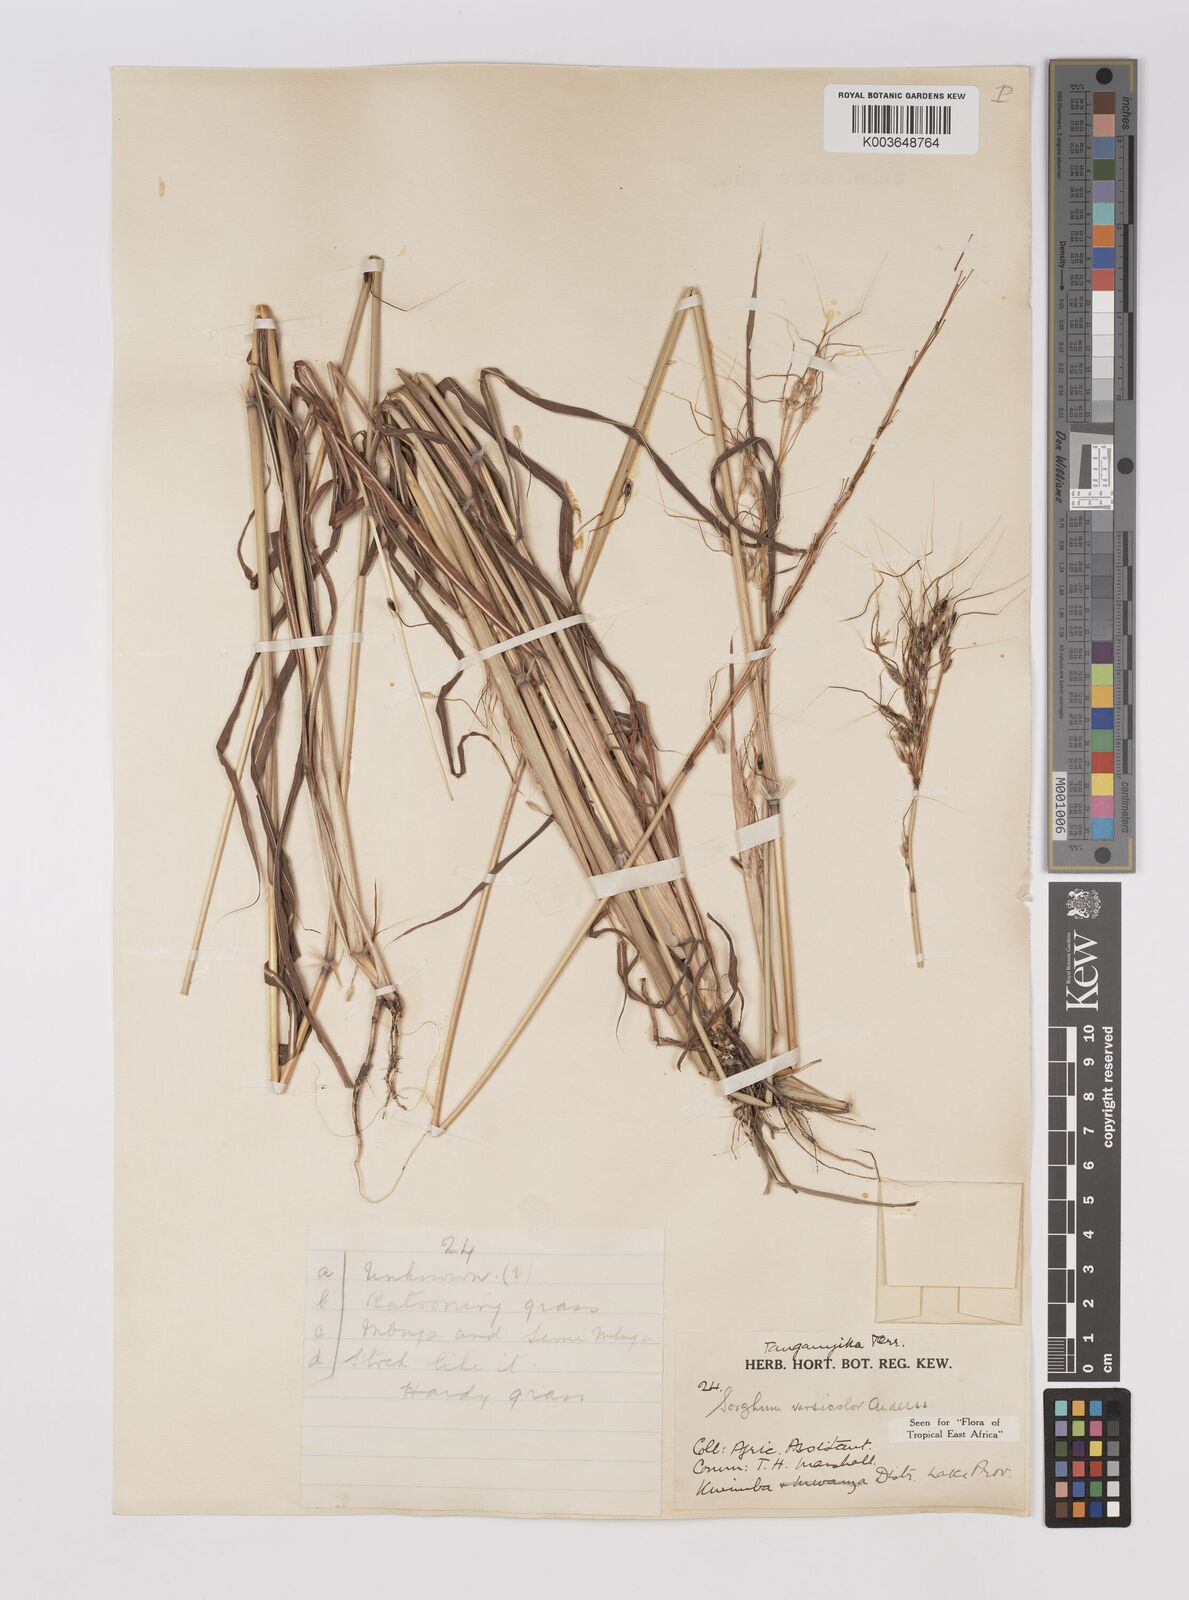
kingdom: Plantae
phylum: Tracheophyta
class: Liliopsida
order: Poales
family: Poaceae
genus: Sarga
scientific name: Sarga versicolor
